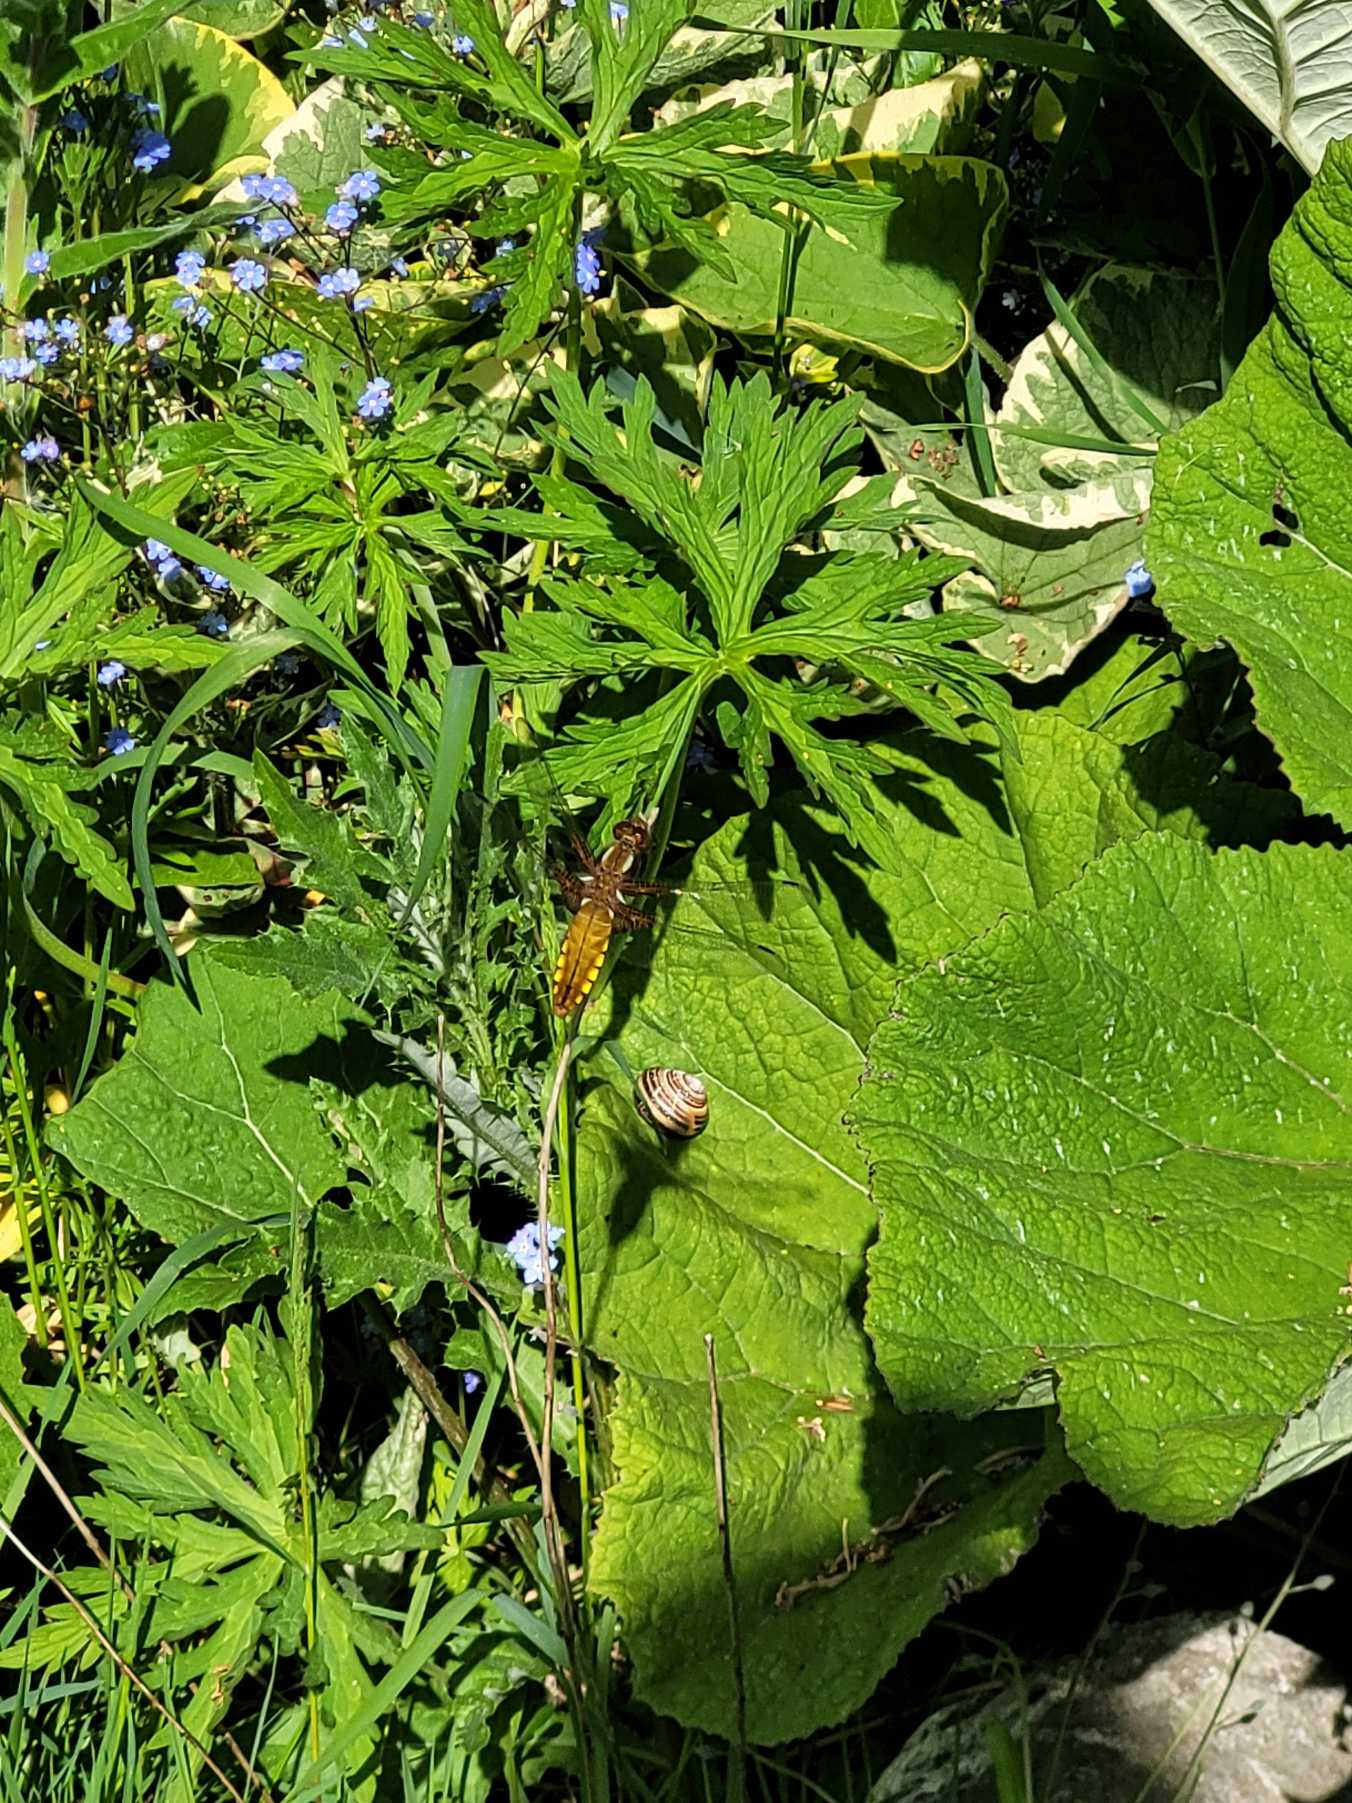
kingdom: Animalia
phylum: Arthropoda
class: Insecta
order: Odonata
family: Libellulidae
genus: Libellula
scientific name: Libellula depressa
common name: Blå libel
